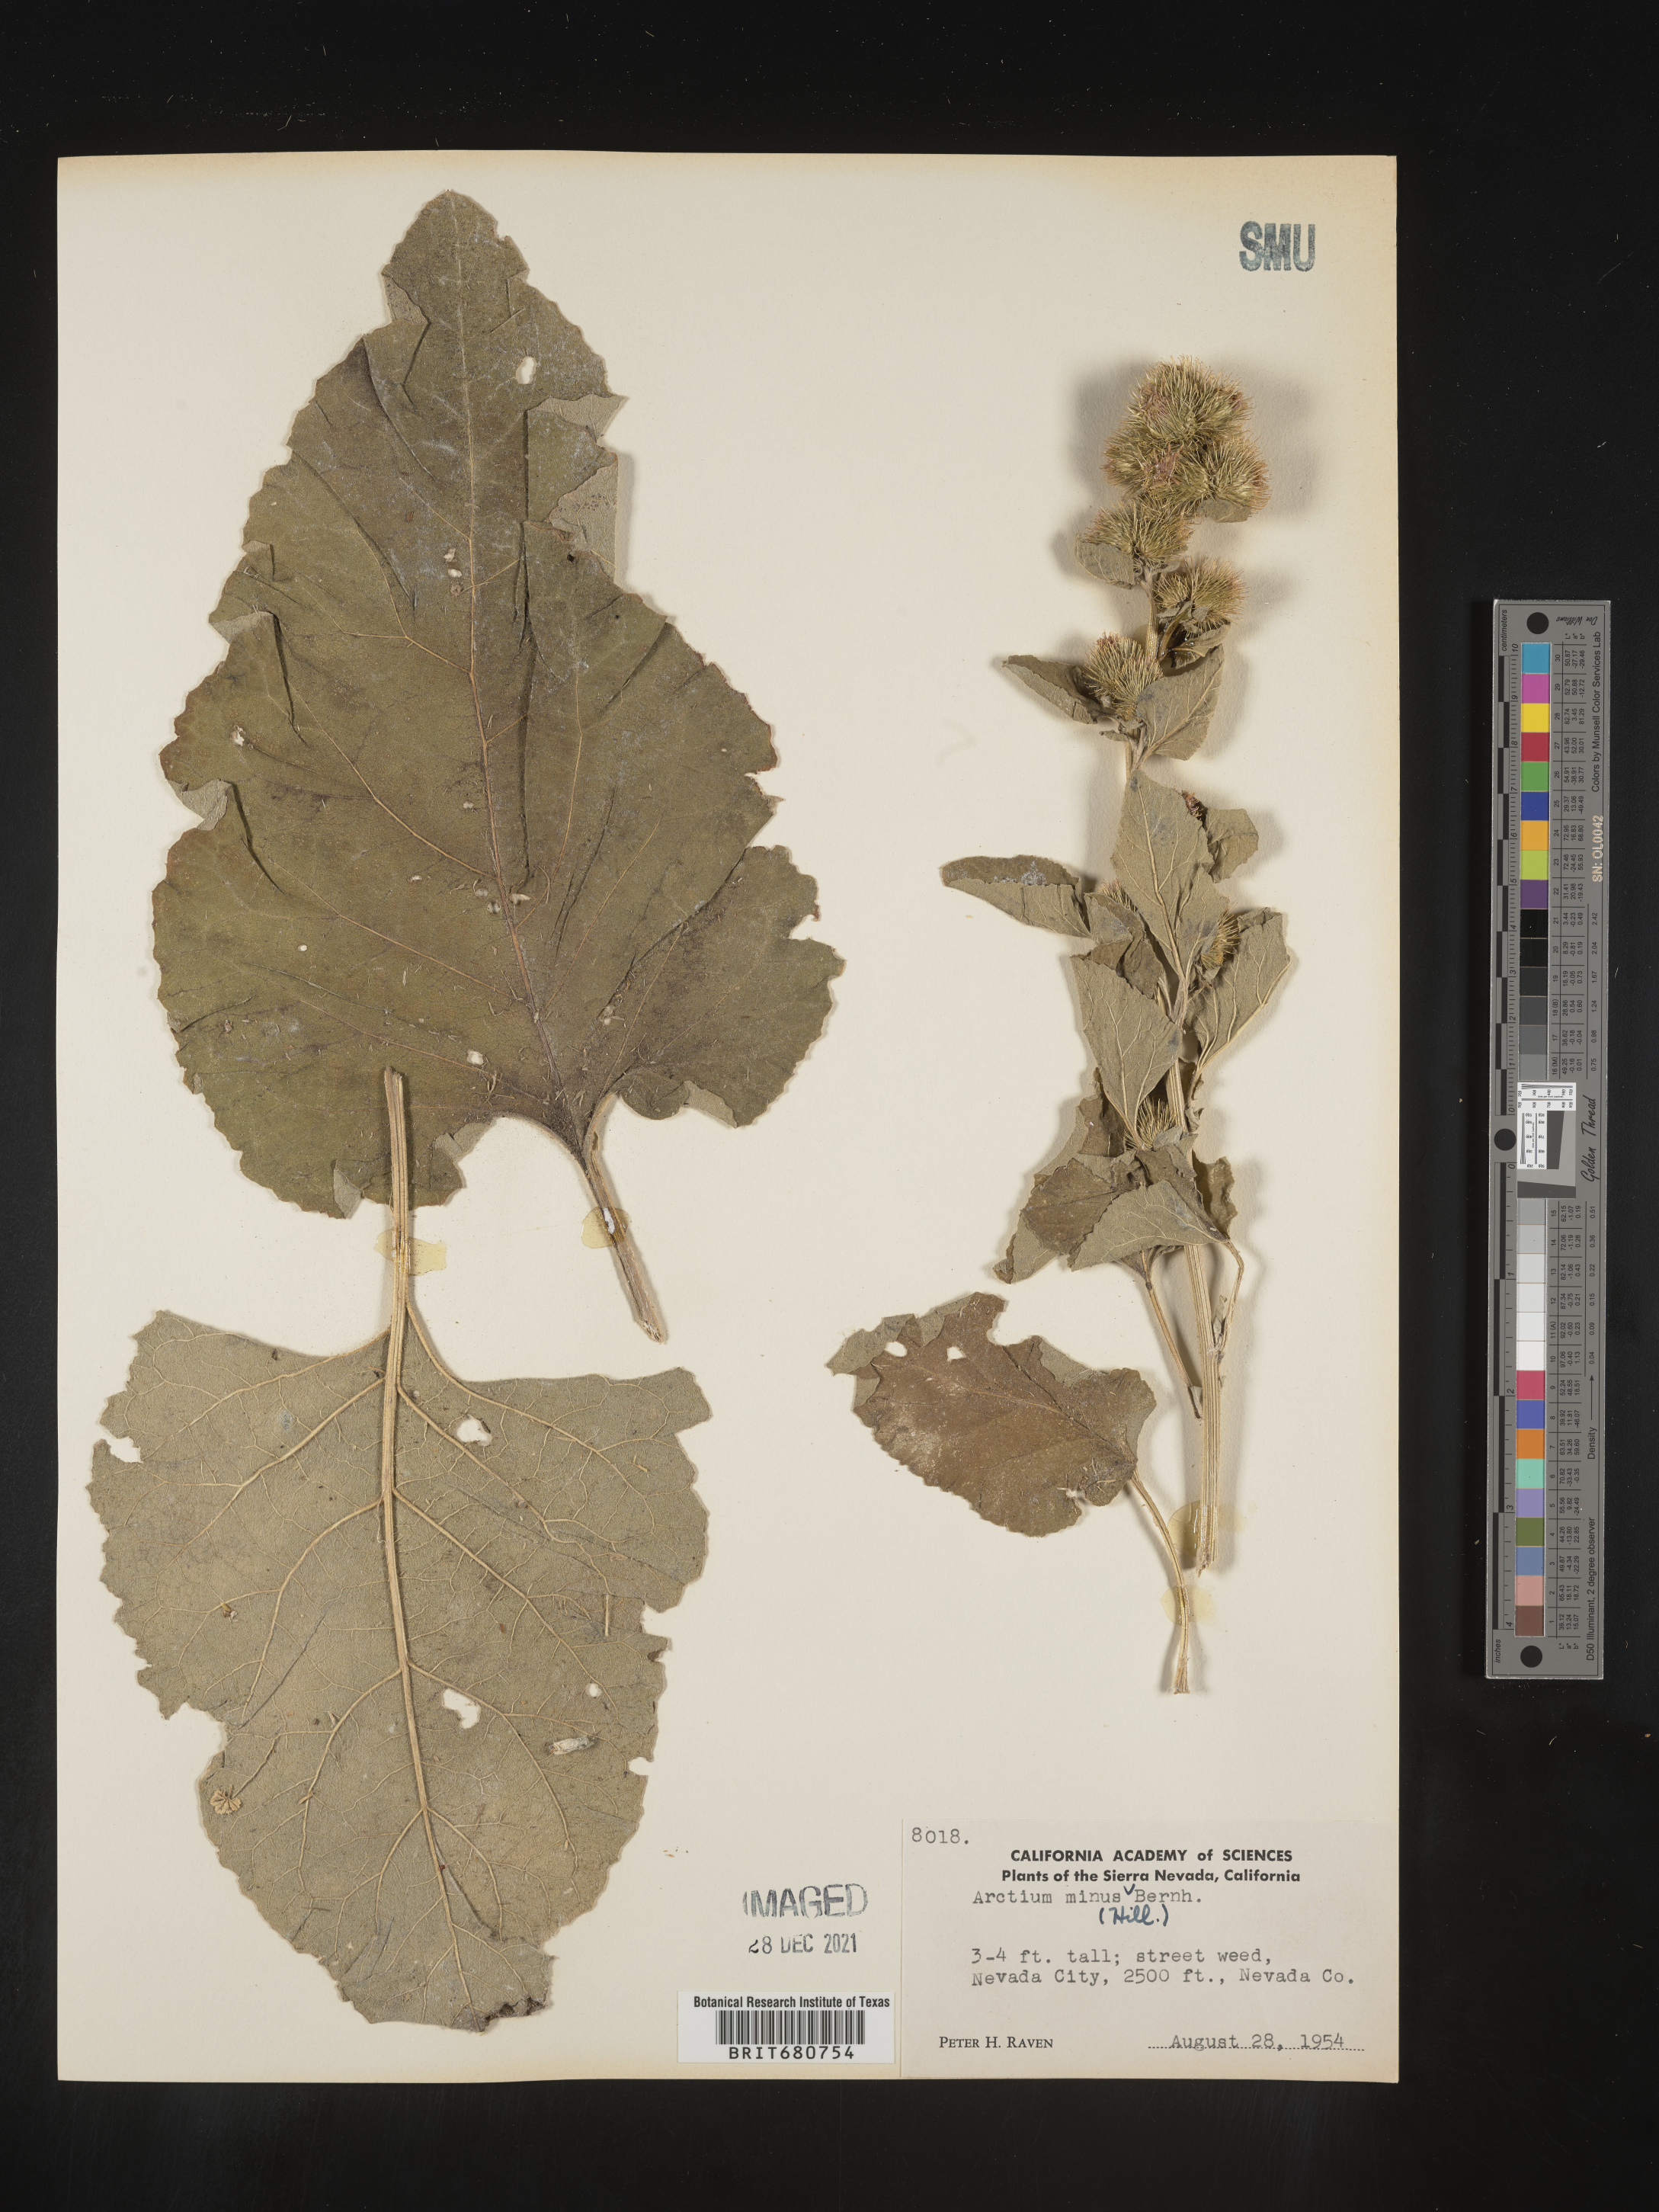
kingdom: Plantae
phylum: Tracheophyta
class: Magnoliopsida
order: Asterales
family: Asteraceae
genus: Arctium
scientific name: Arctium minus
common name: Lesser burdock
